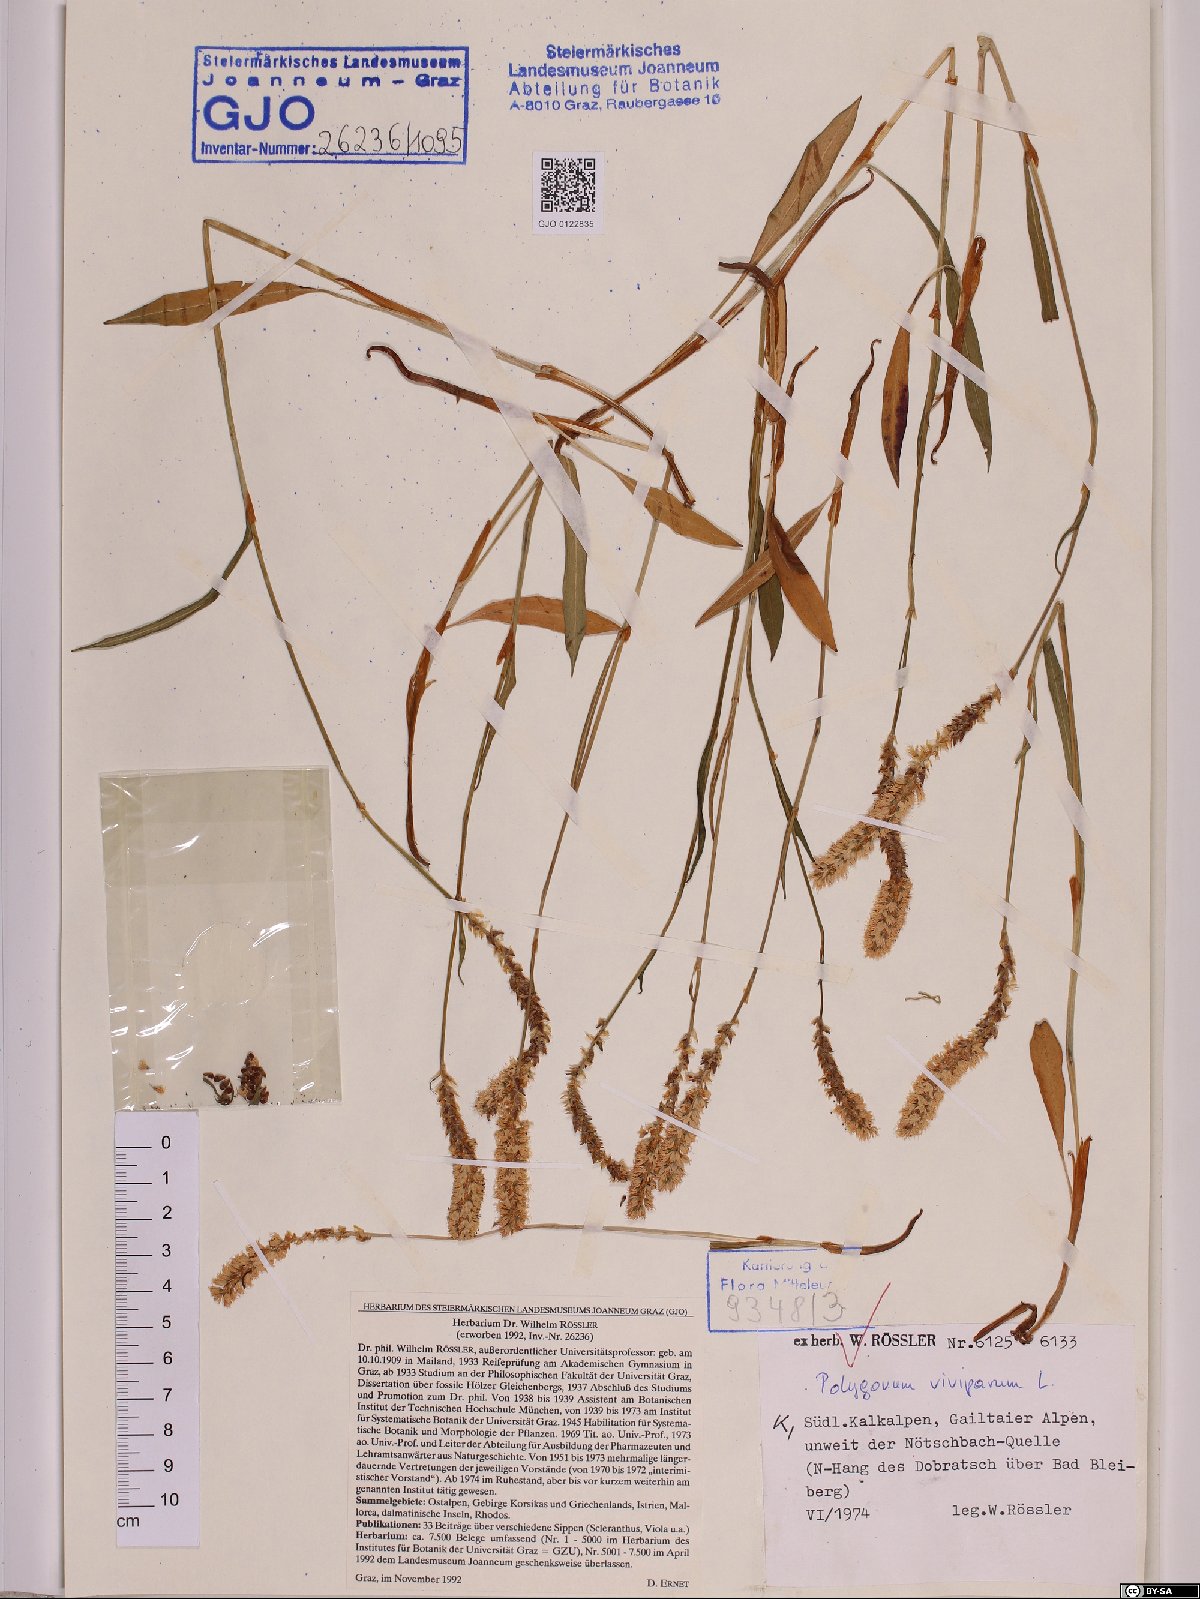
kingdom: Plantae
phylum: Tracheophyta
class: Magnoliopsida
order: Caryophyllales
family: Polygonaceae
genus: Bistorta
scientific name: Bistorta vivipara
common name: Alpine bistort
